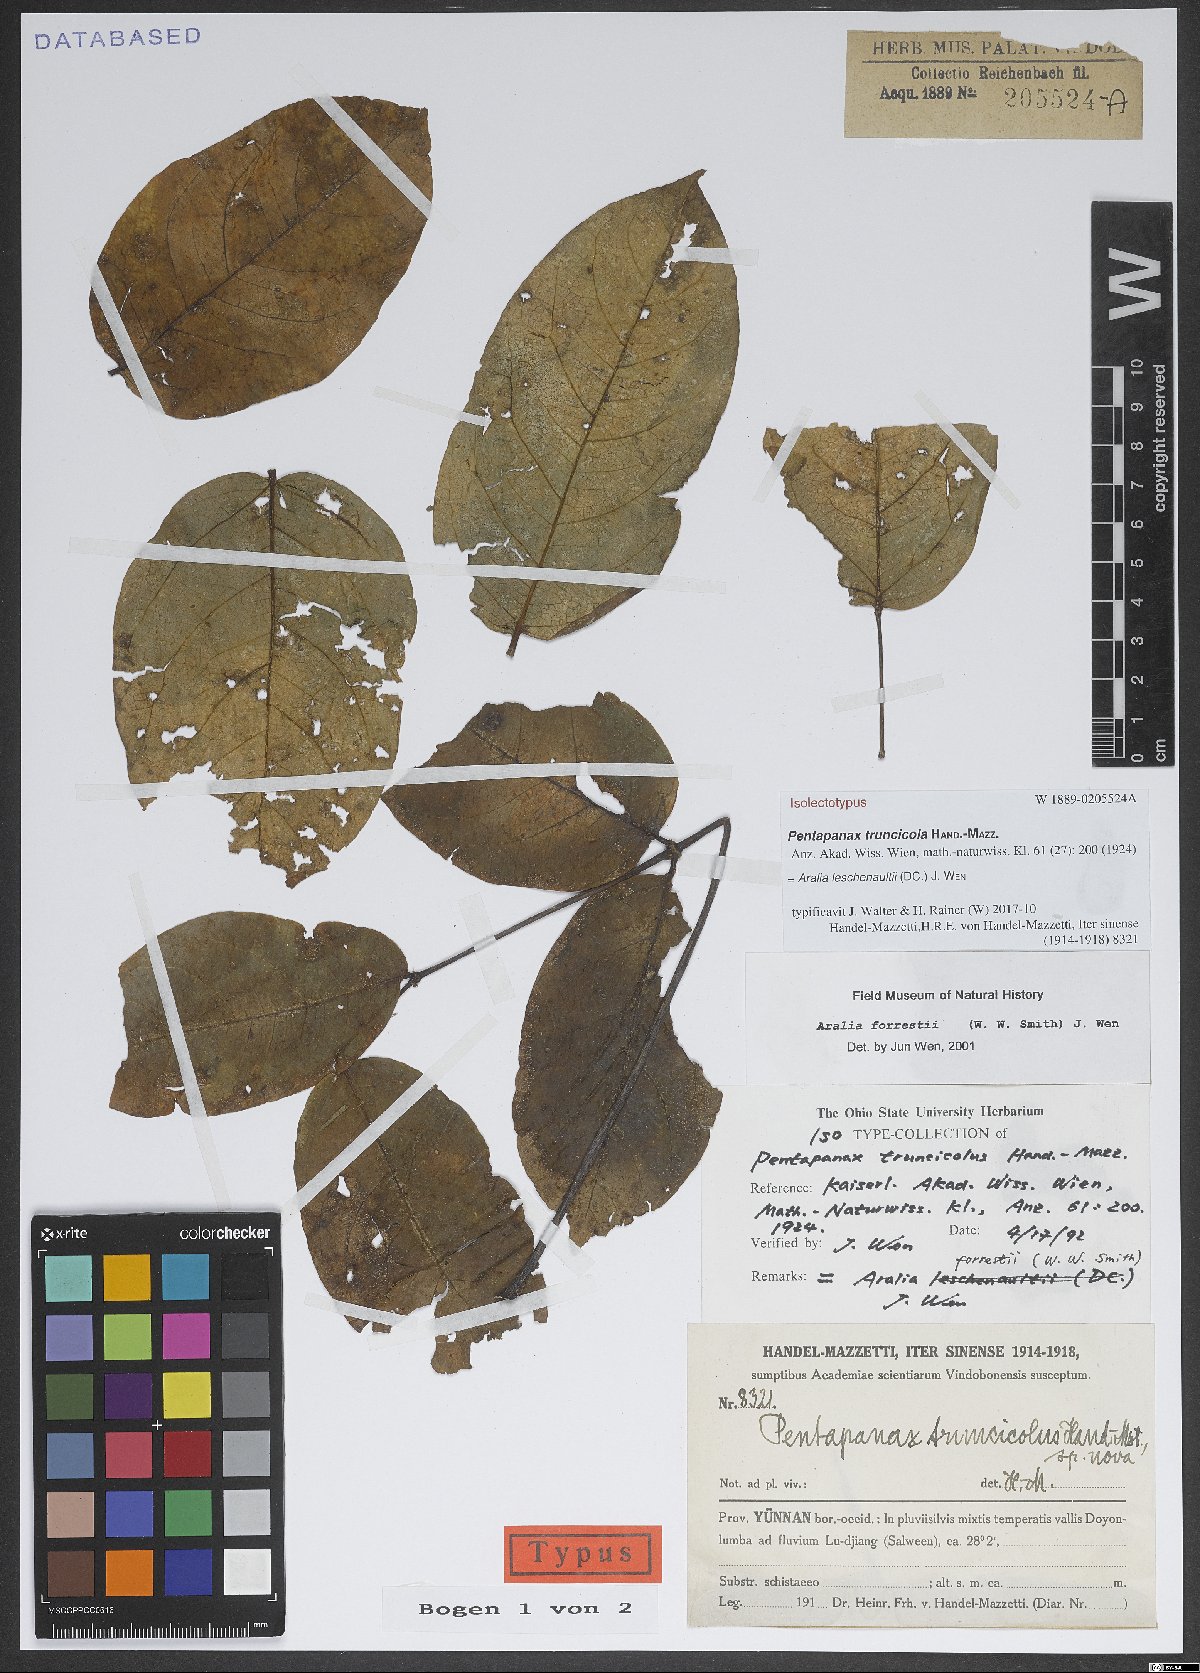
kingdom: Plantae
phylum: Tracheophyta
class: Magnoliopsida
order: Apiales
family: Araliaceae
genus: Aralia
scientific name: Aralia leschenaultii
